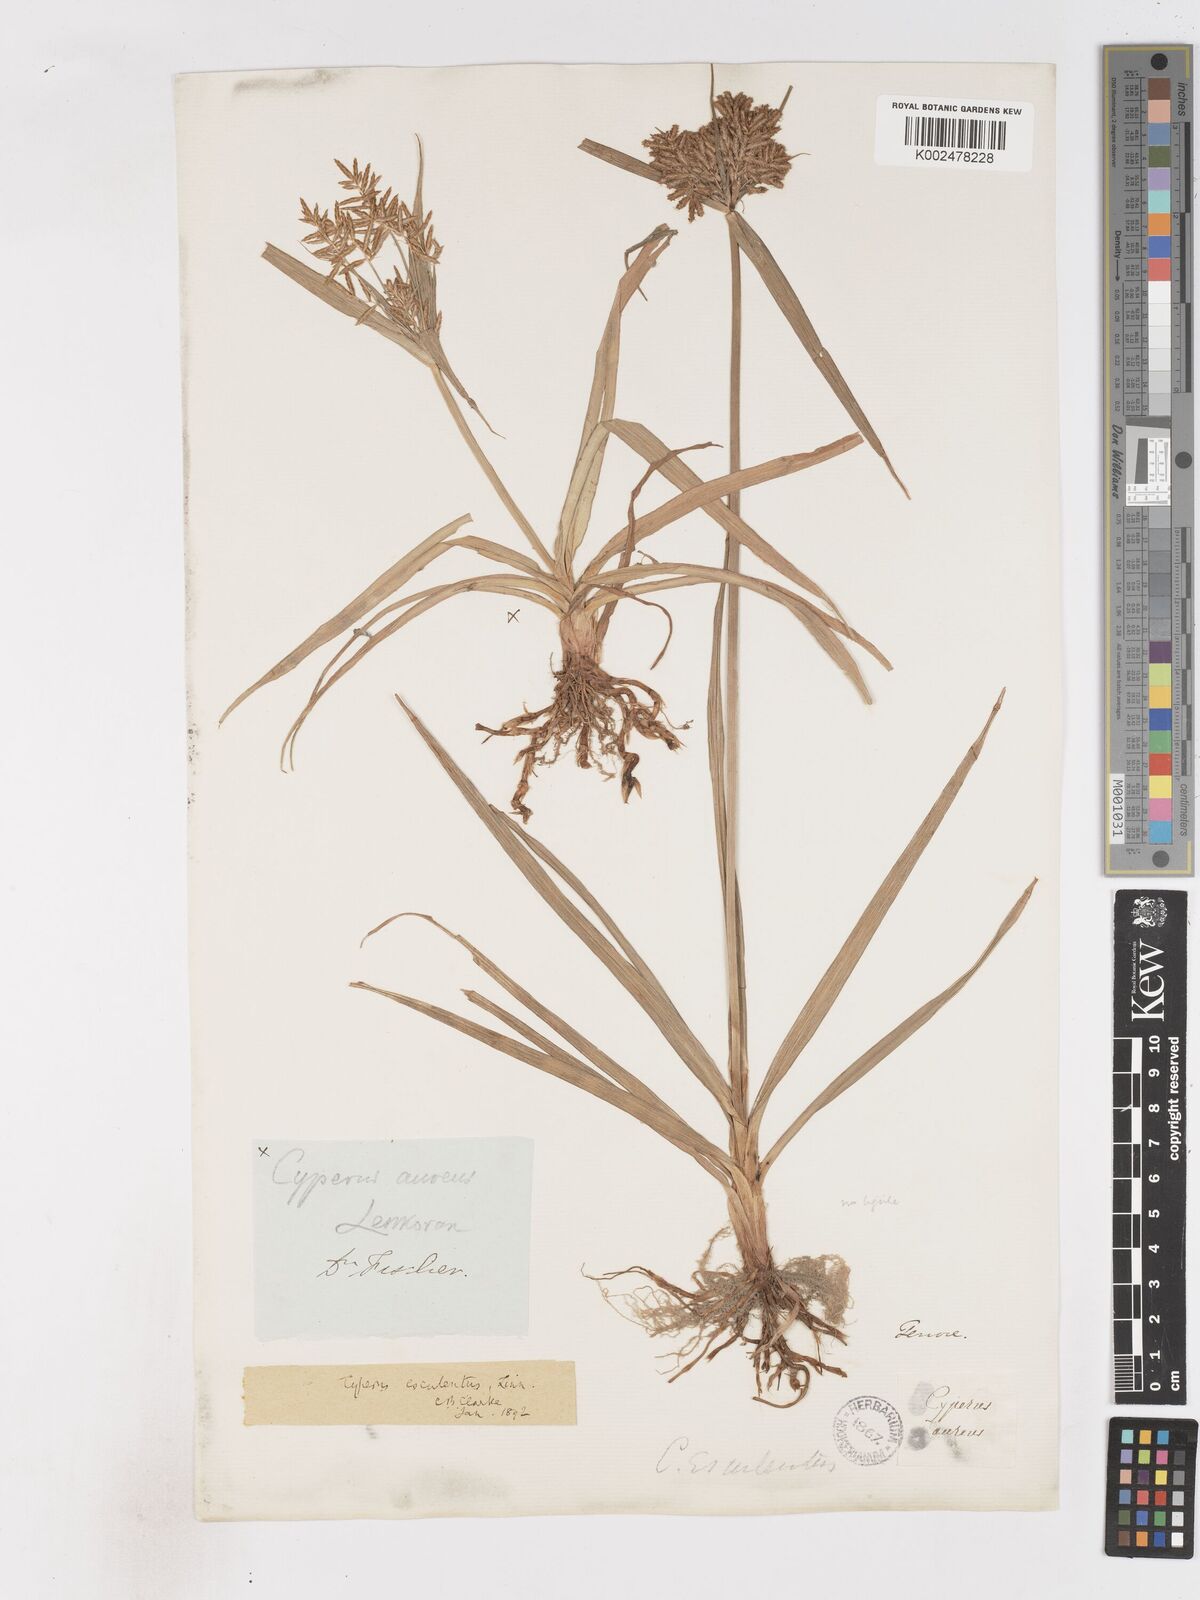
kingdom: Plantae
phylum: Tracheophyta
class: Liliopsida
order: Poales
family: Cyperaceae
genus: Cyperus
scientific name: Cyperus esculentus
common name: Yellow nutsedge
